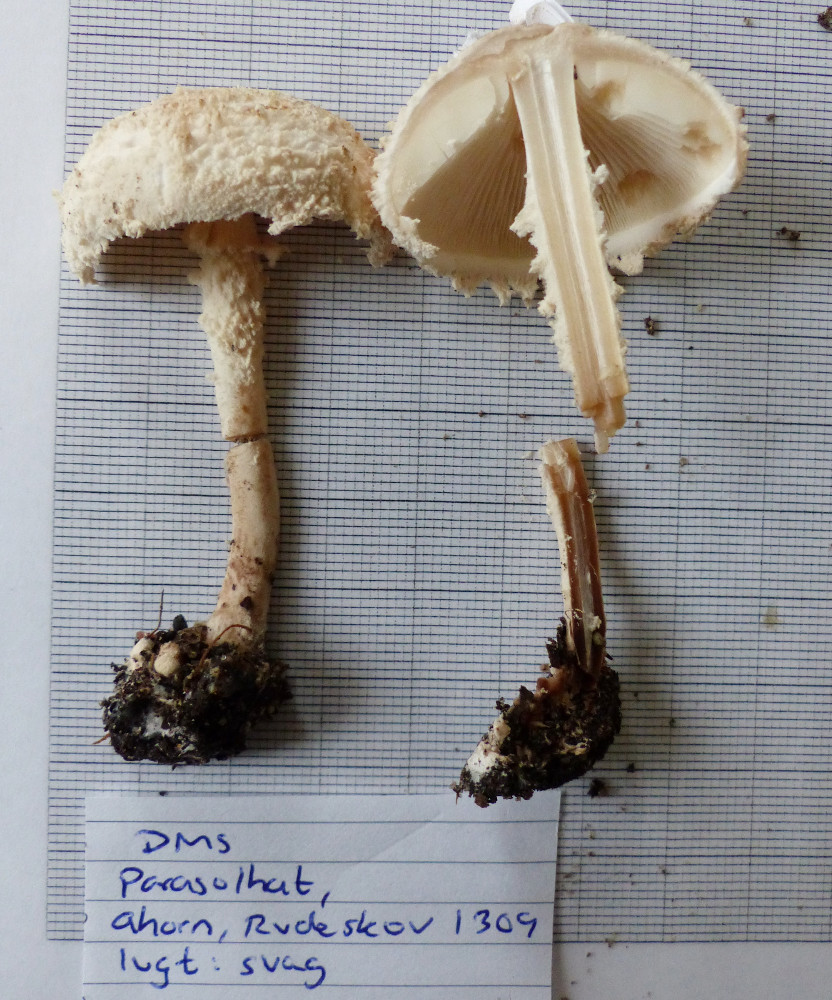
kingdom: Fungi
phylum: Basidiomycota
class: Agaricomycetes
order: Agaricales
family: Agaricaceae
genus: Cystolepiota
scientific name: Cystolepiota adulterina
